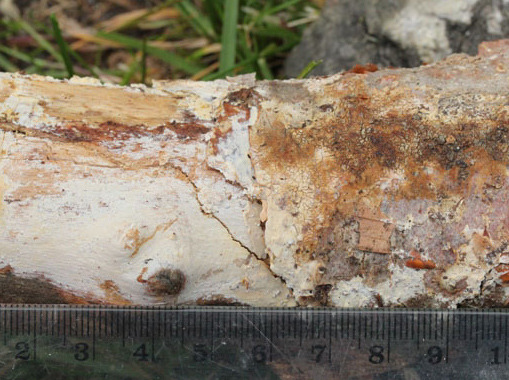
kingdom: Fungi
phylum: Basidiomycota
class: Agaricomycetes
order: Russulales
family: Stereaceae
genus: Gloeocystidiellum
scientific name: Gloeocystidiellum porosum
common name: mælkehvid olieskind
